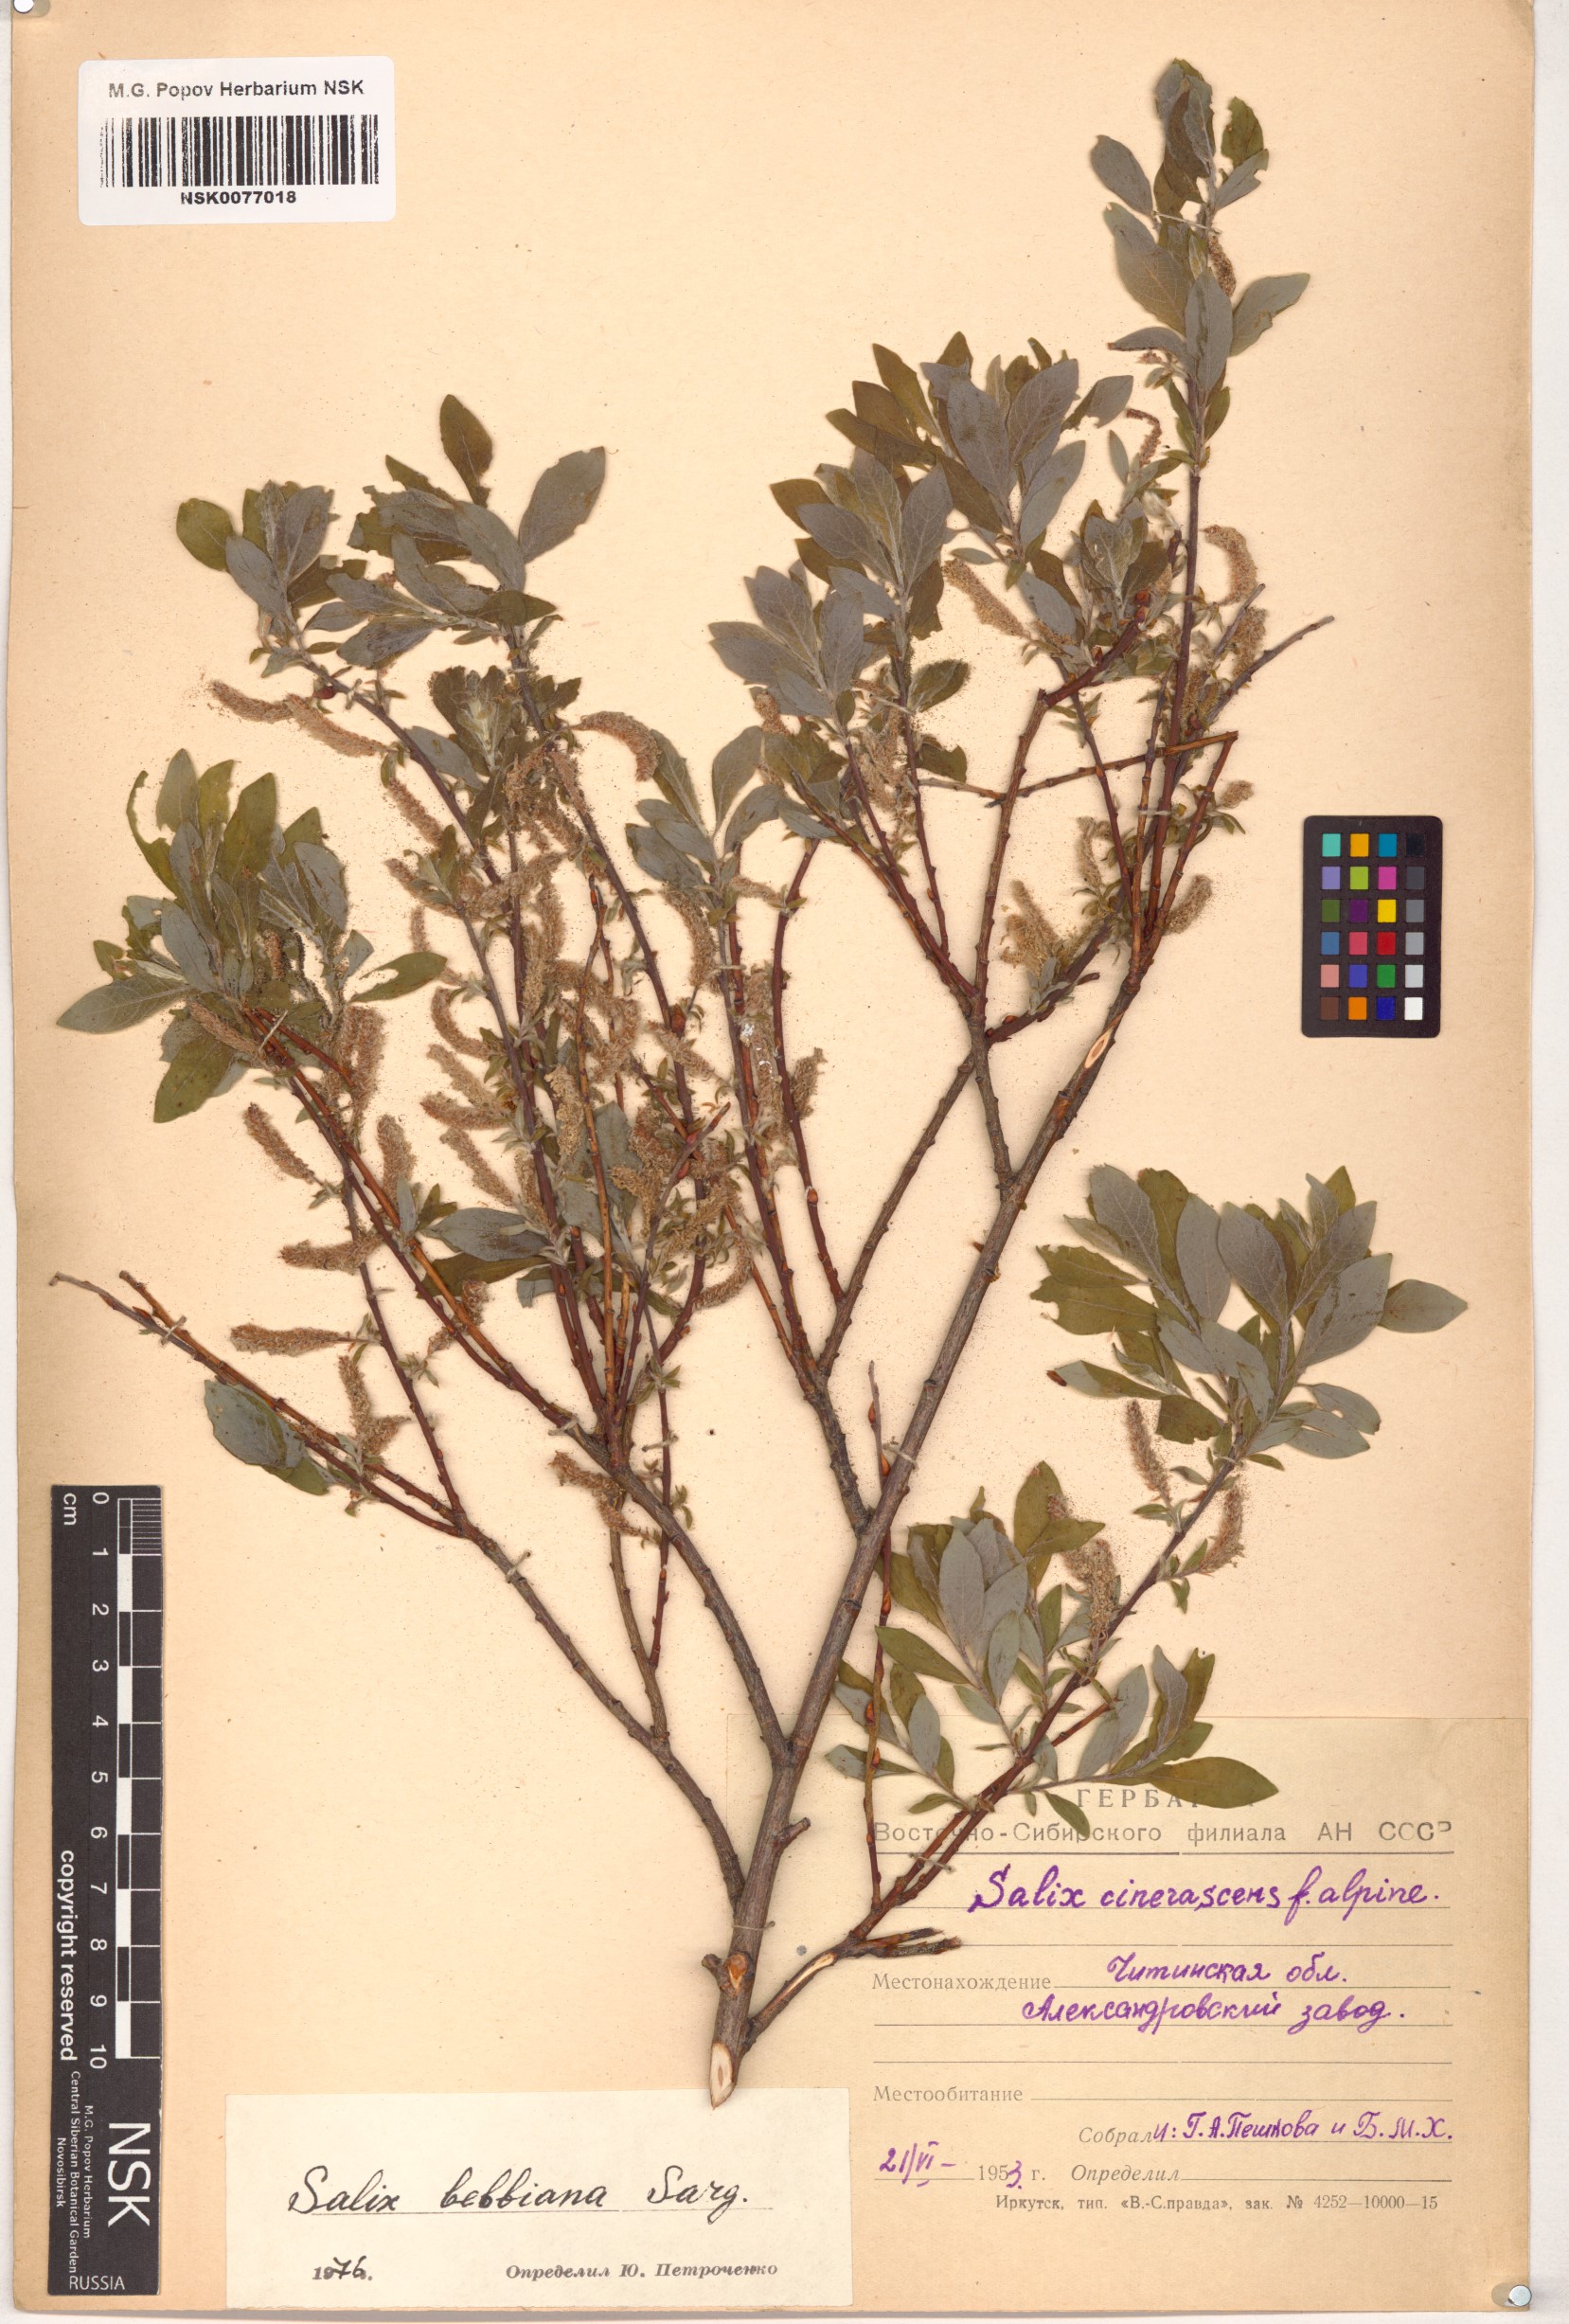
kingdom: Plantae
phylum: Tracheophyta
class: Magnoliopsida
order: Malpighiales
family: Salicaceae
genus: Salix
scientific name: Salix bebbiana
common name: Bebb's willow
